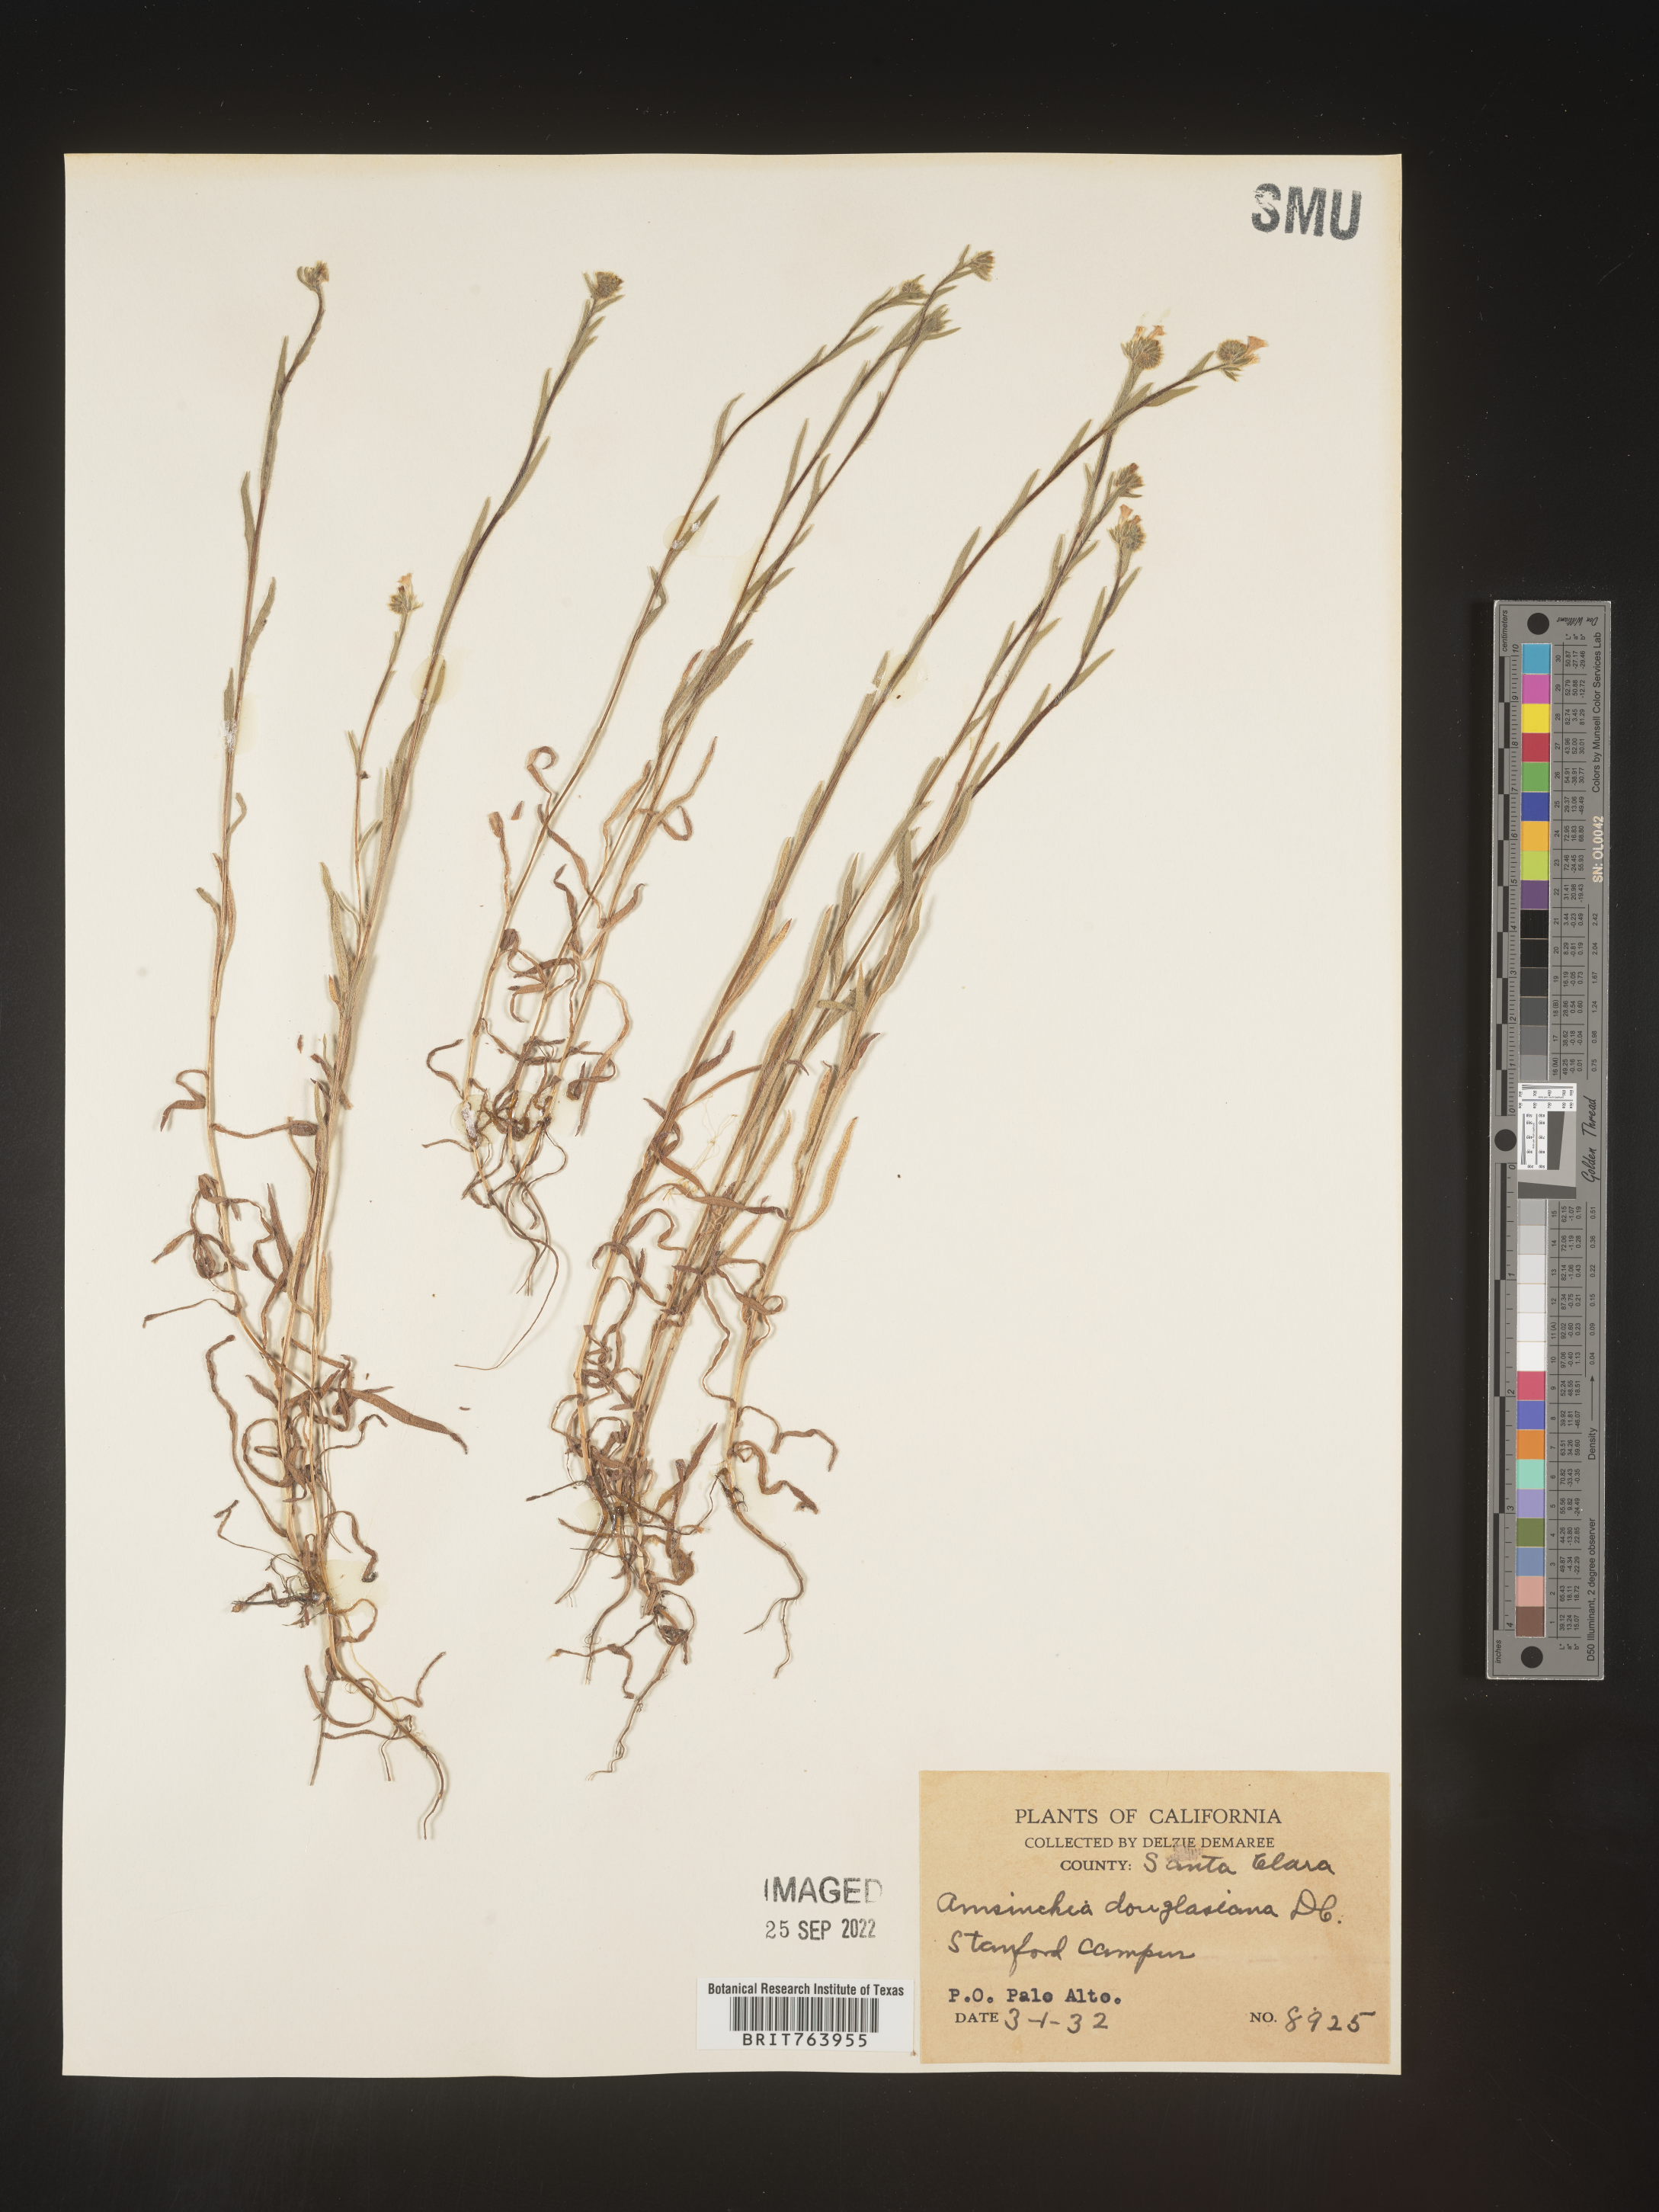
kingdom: Plantae
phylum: Tracheophyta
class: Magnoliopsida
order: Boraginales
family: Boraginaceae
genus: Amsinckia
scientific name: Amsinckia
